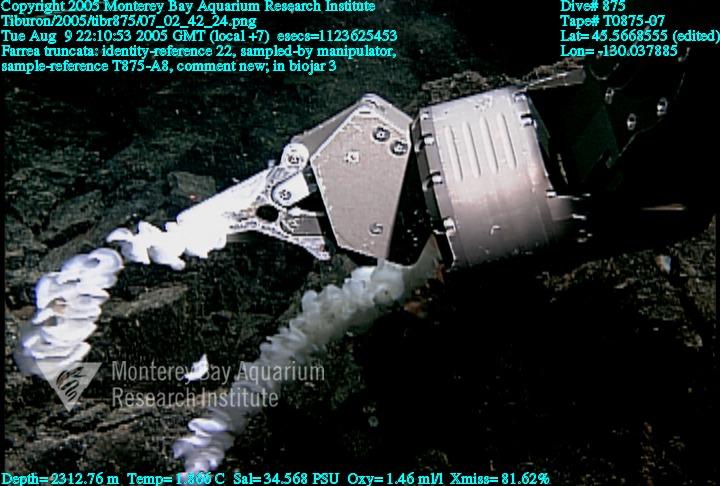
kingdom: Animalia
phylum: Porifera
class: Hexactinellida
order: Sceptrulophora
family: Farreidae
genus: Farrea
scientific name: Farrea truncata
